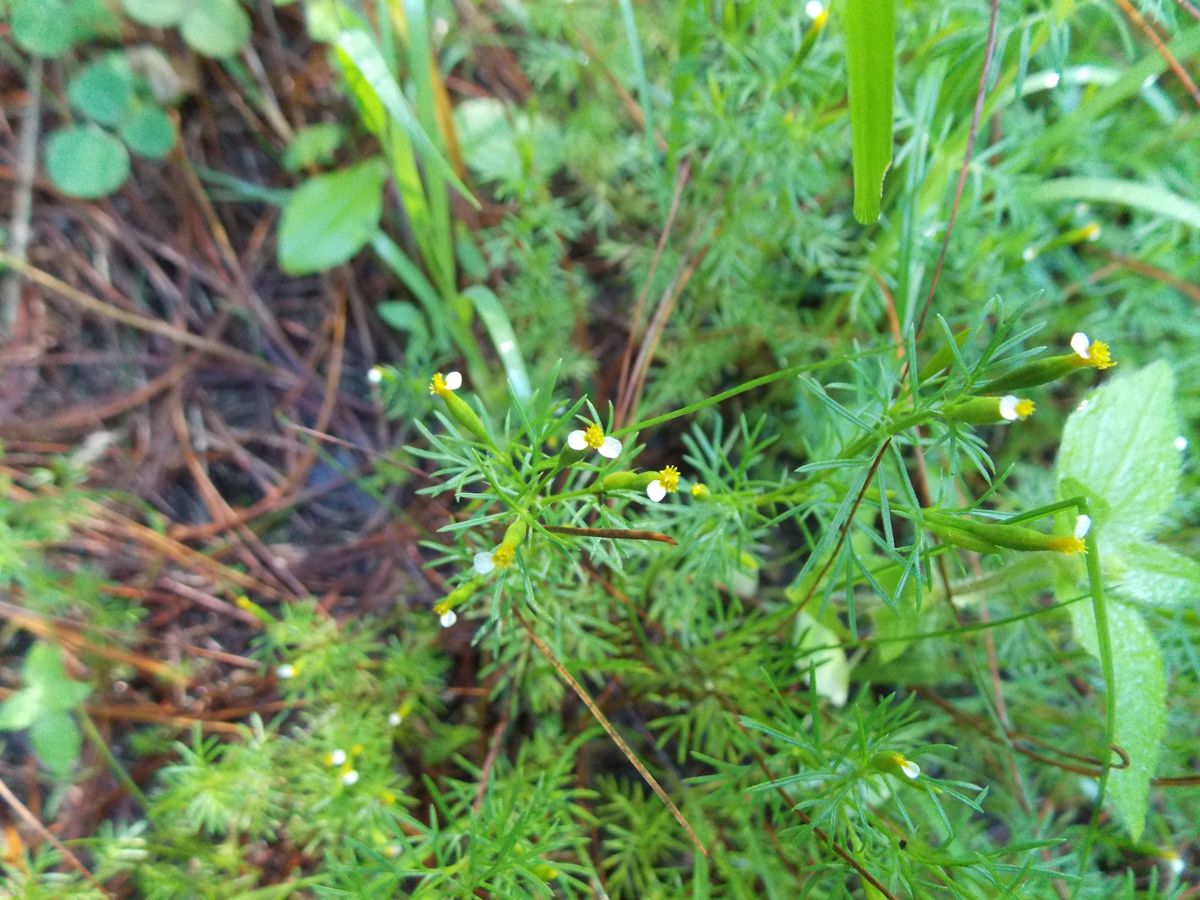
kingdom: Plantae
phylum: Tracheophyta
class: Magnoliopsida
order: Asterales
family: Asteraceae
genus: Tagetes
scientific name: Tagetes filifolia
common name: Lesser marigold
